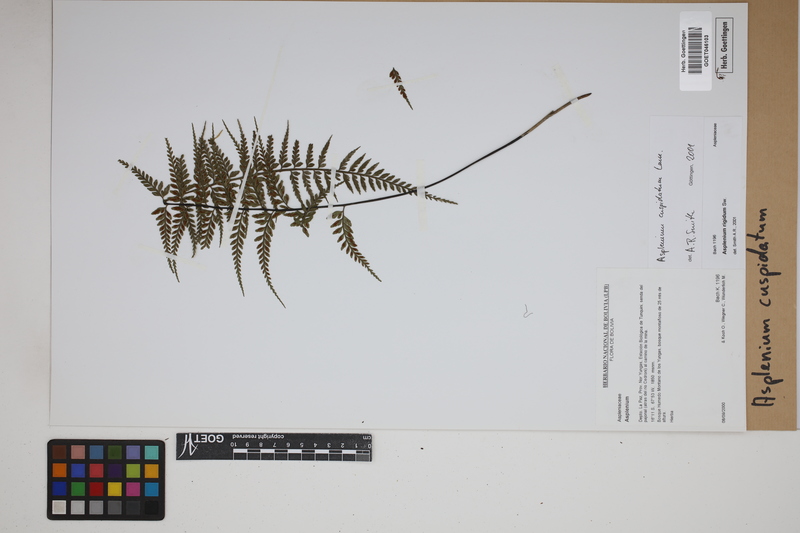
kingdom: Plantae
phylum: Tracheophyta
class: Polypodiopsida
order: Polypodiales
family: Aspleniaceae
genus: Asplenium
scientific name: Asplenium cuspidatum
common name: Eared spleenwort
